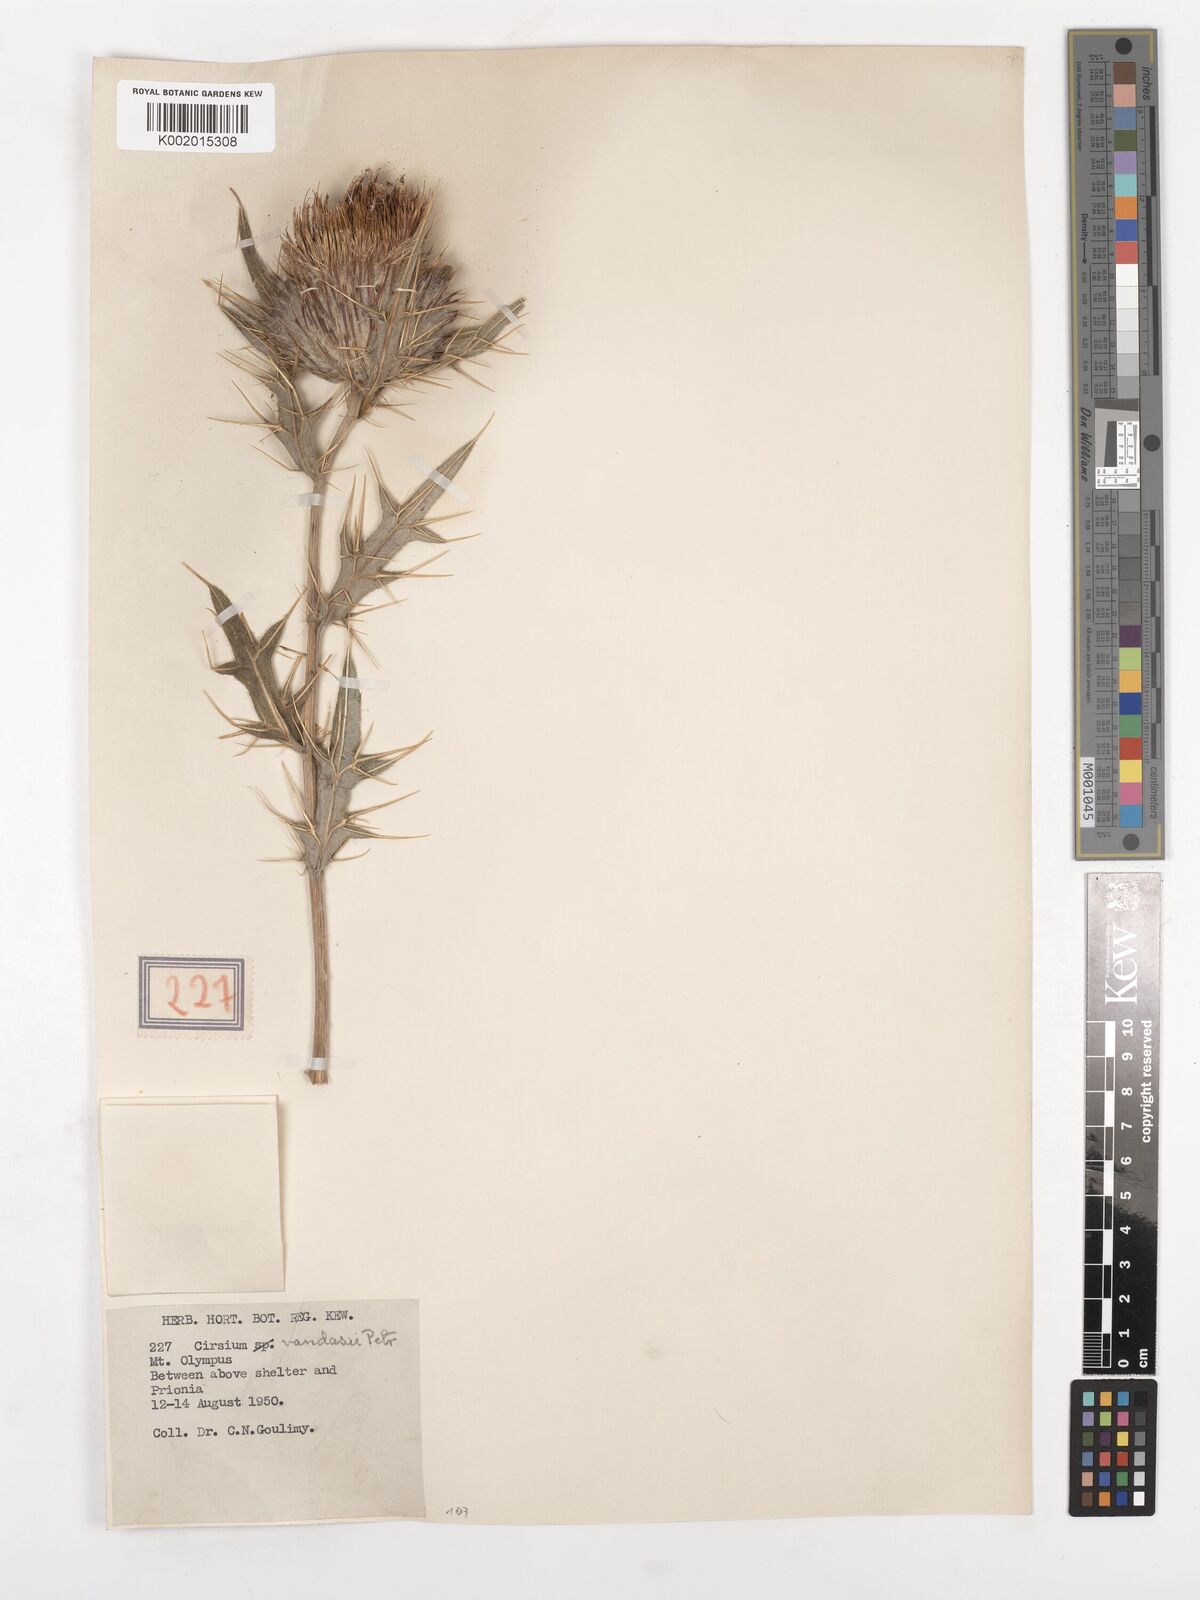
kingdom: Plantae
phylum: Tracheophyta
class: Magnoliopsida
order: Asterales
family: Asteraceae
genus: Lophiolepis
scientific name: Lophiolepis eriophora
